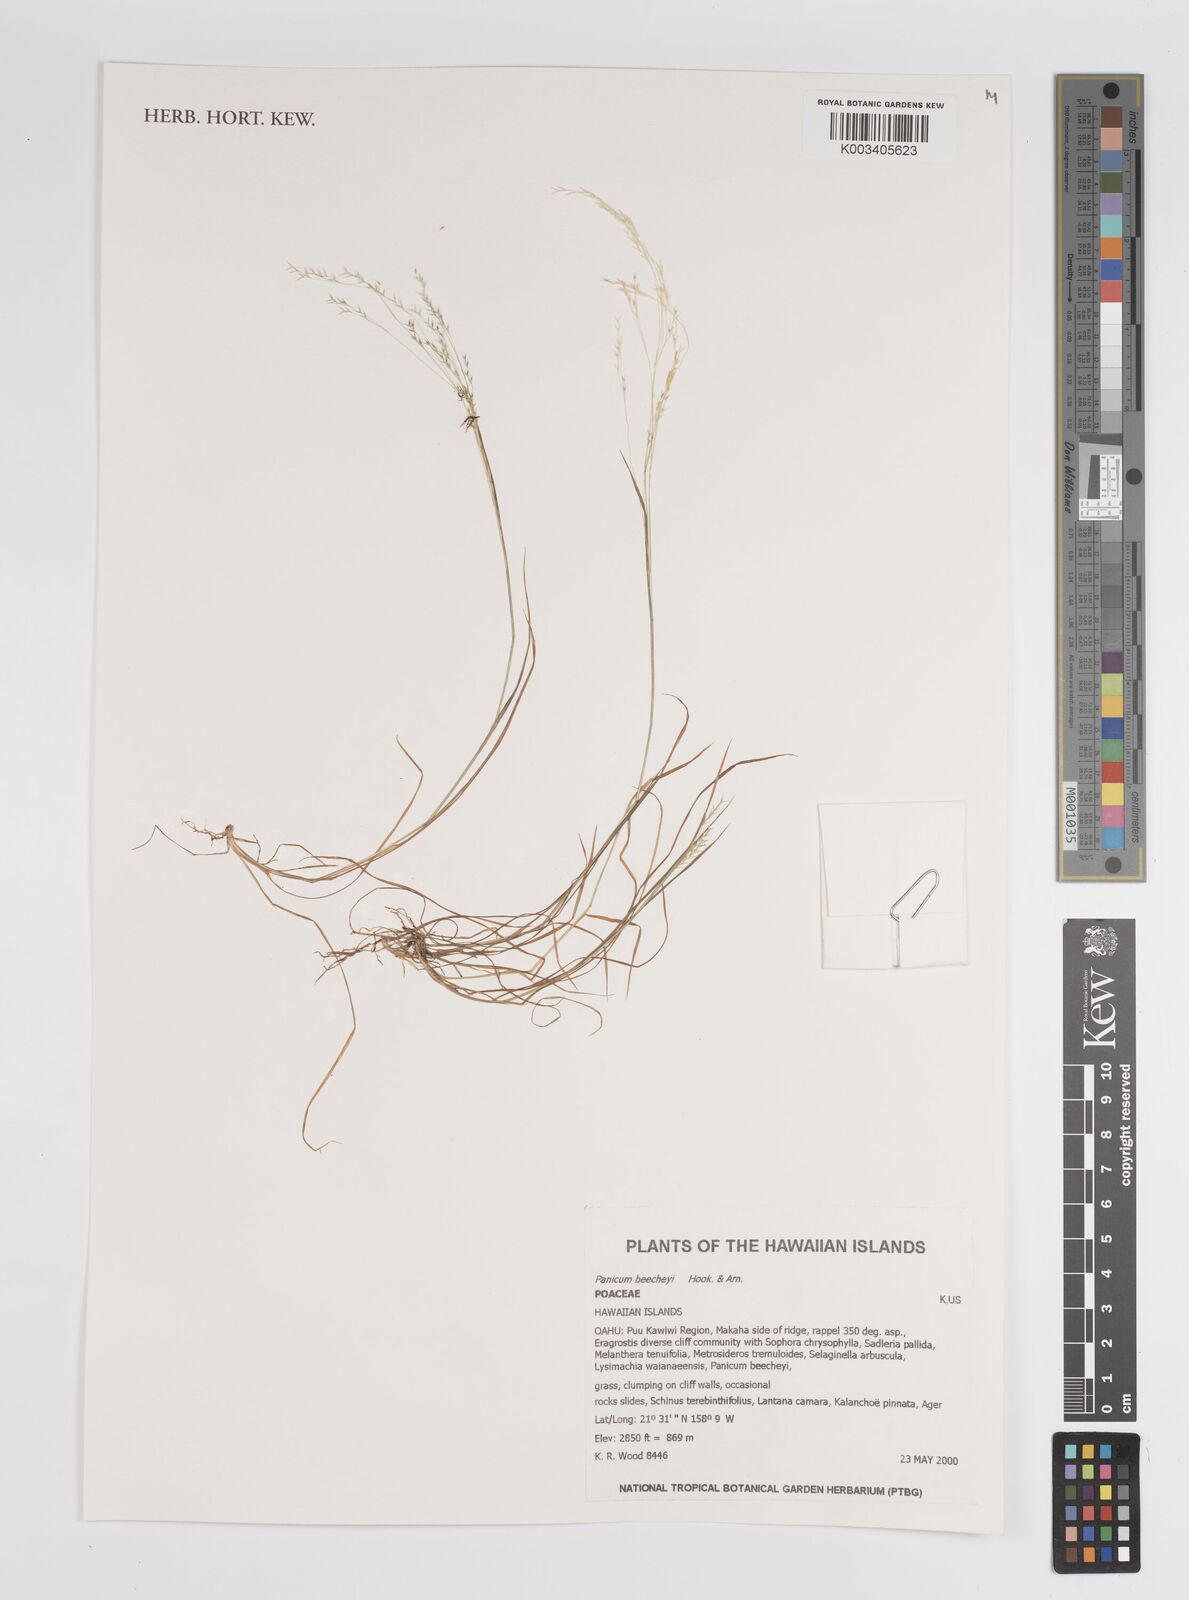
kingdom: Plantae
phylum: Tracheophyta
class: Liliopsida
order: Poales
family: Poaceae
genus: Panicum
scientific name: Panicum beecheyi
